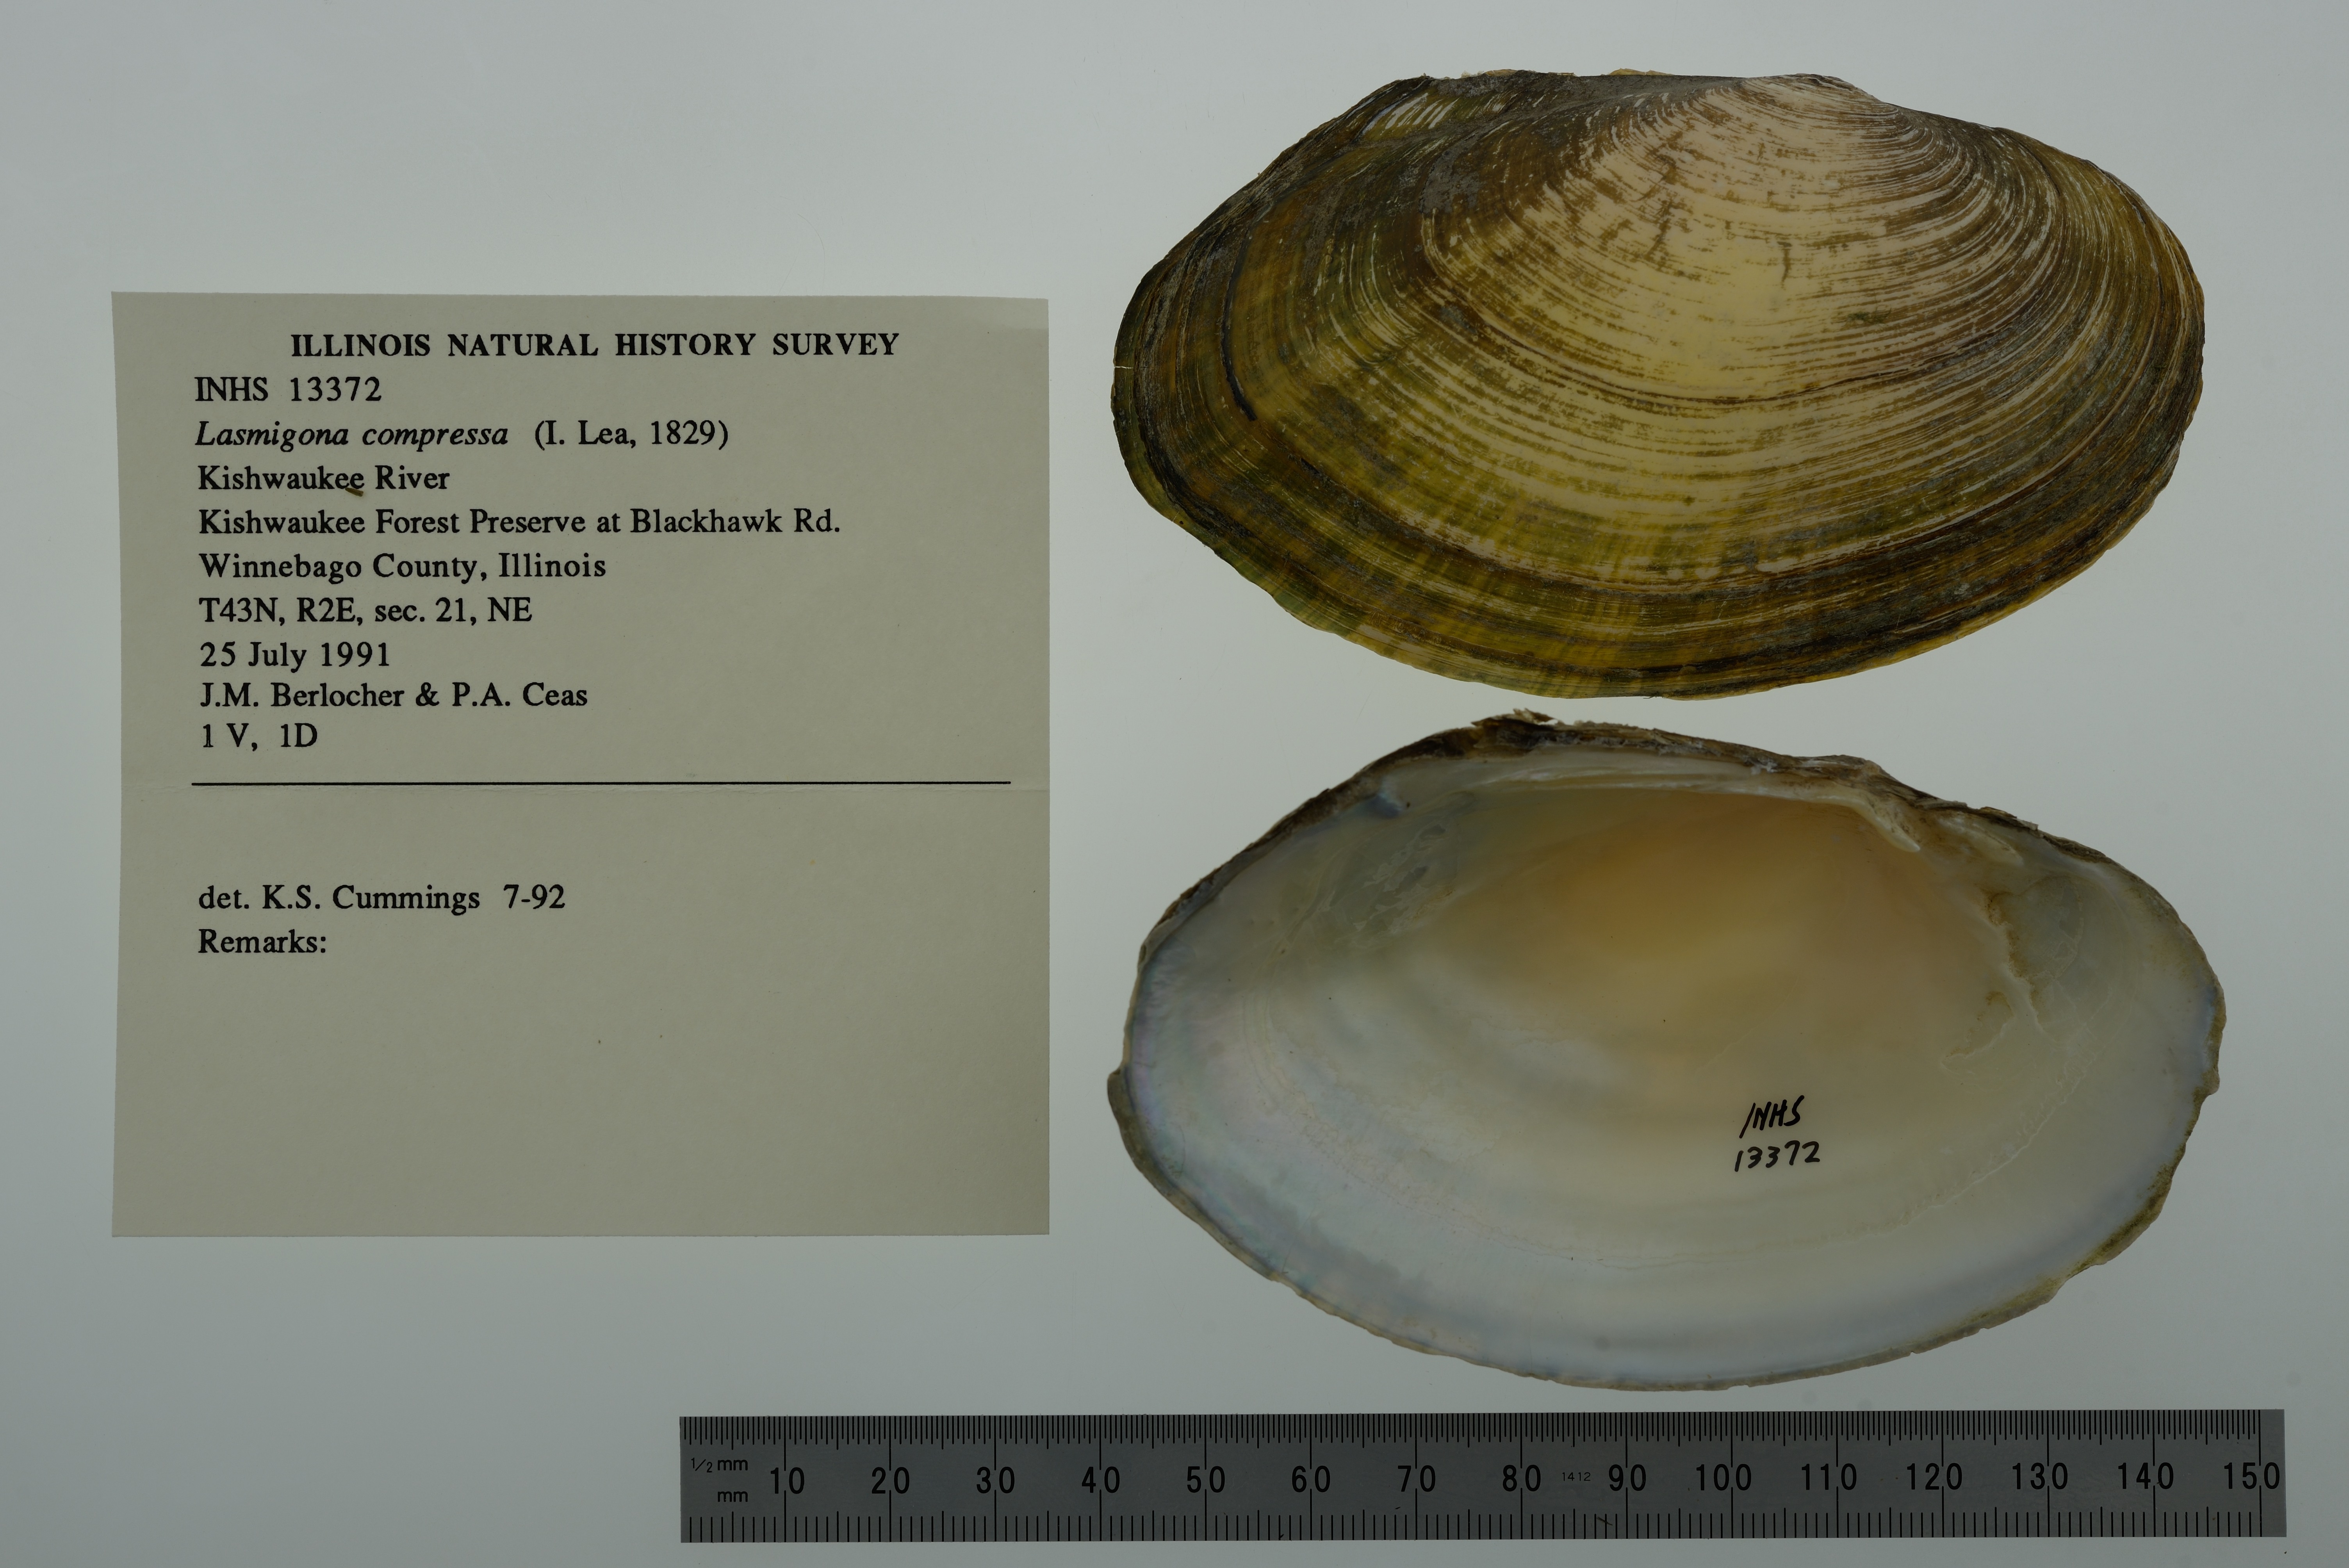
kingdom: Animalia
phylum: Mollusca
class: Bivalvia
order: Unionida
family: Unionidae
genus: Lasmigona
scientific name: Lasmigona compressa
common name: Creek heelsplitter
